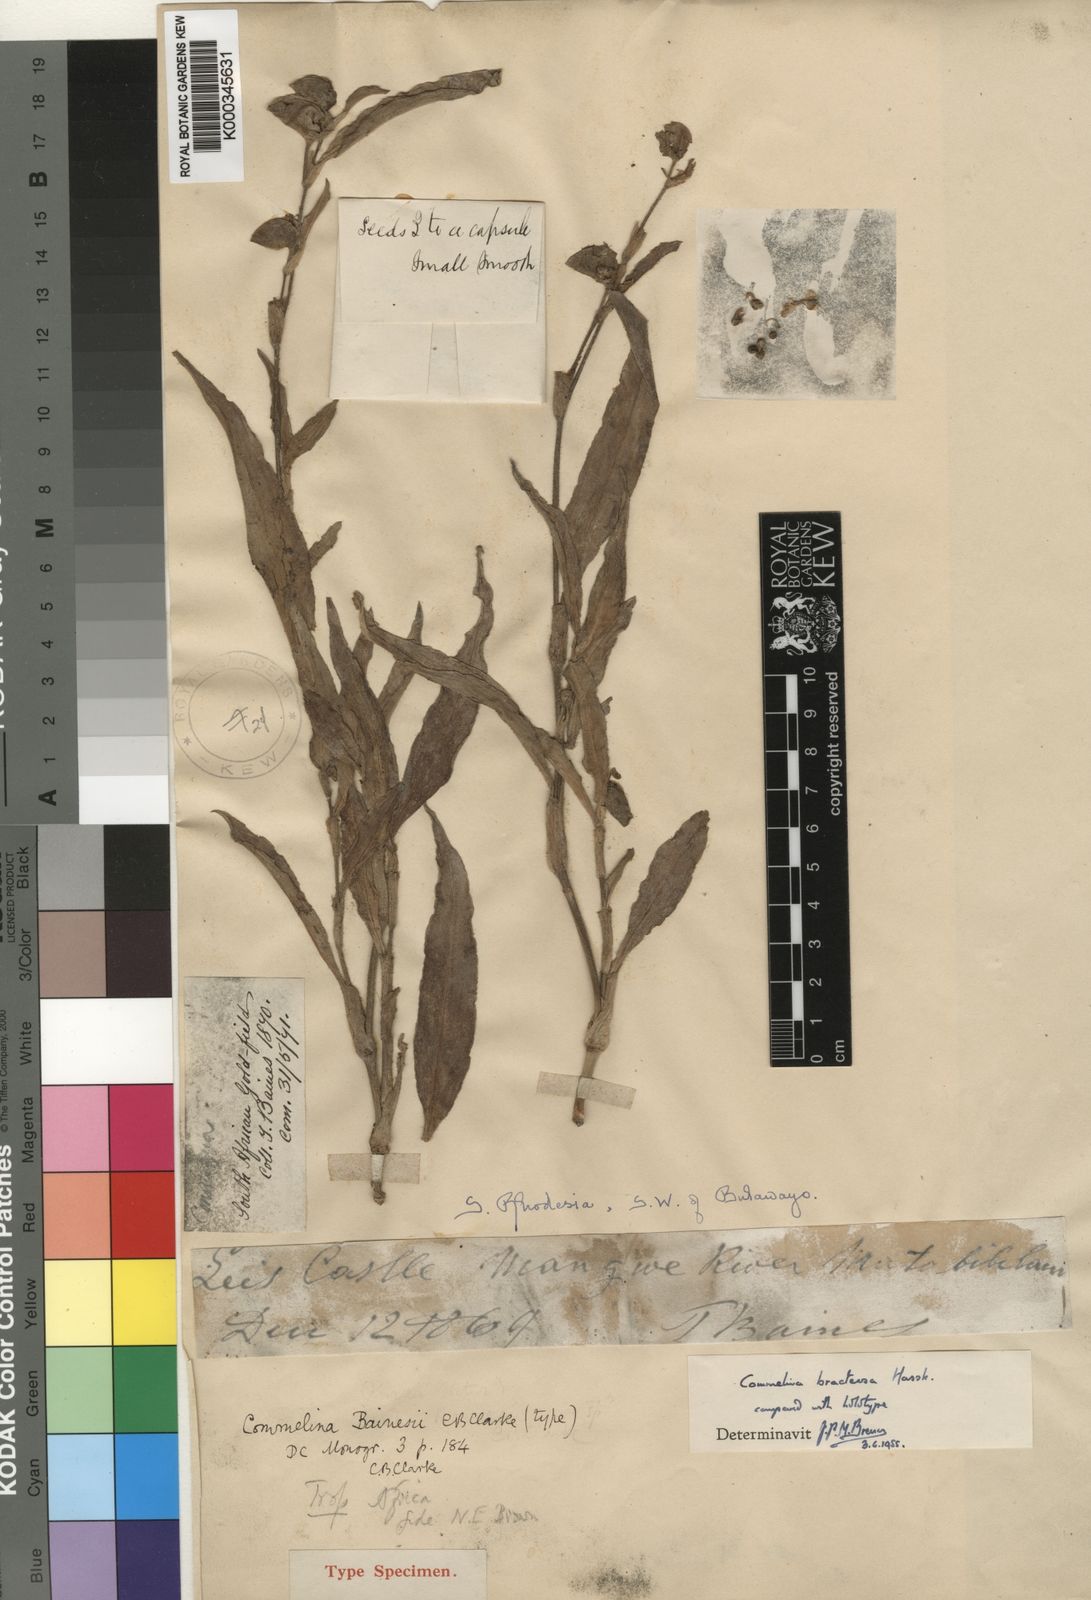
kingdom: Plantae
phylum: Tracheophyta
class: Liliopsida
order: Commelinales
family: Commelinaceae
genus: Commelina
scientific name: Commelina bracteosa
